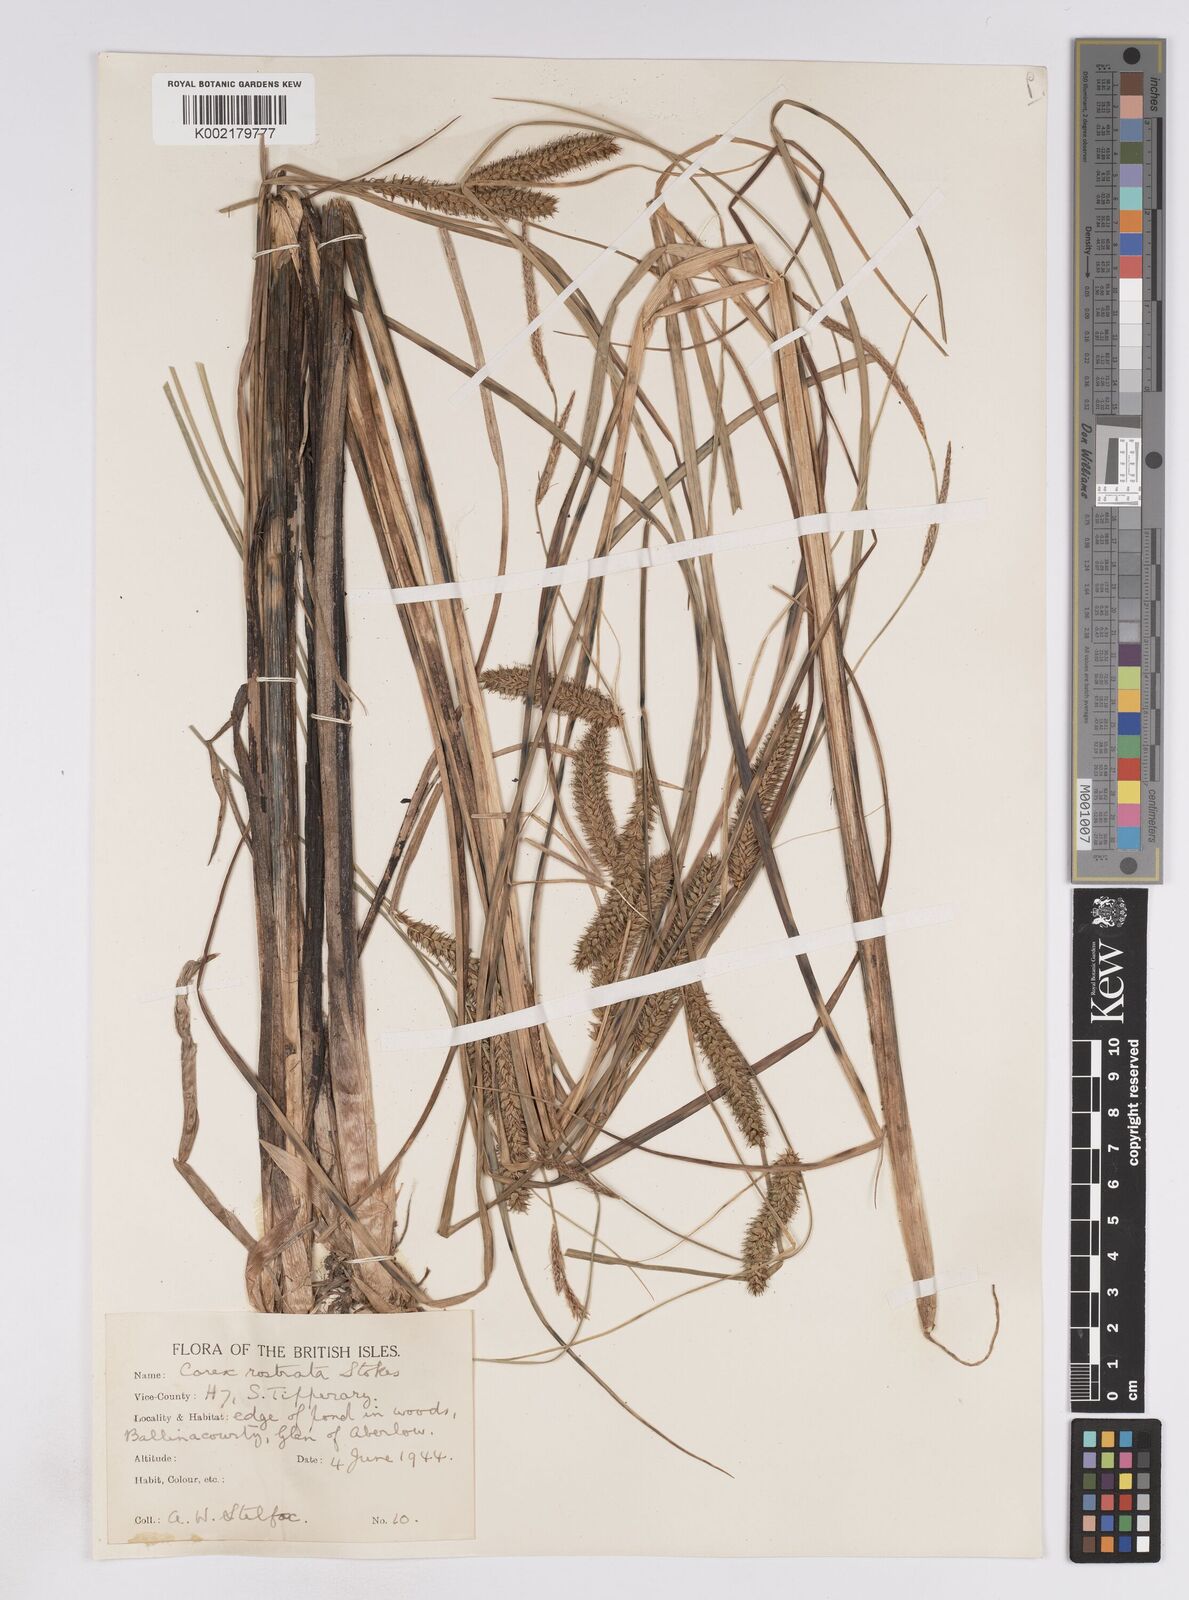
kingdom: Plantae
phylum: Tracheophyta
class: Liliopsida
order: Poales
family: Cyperaceae
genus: Carex
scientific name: Carex rostrata
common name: Bottle sedge
